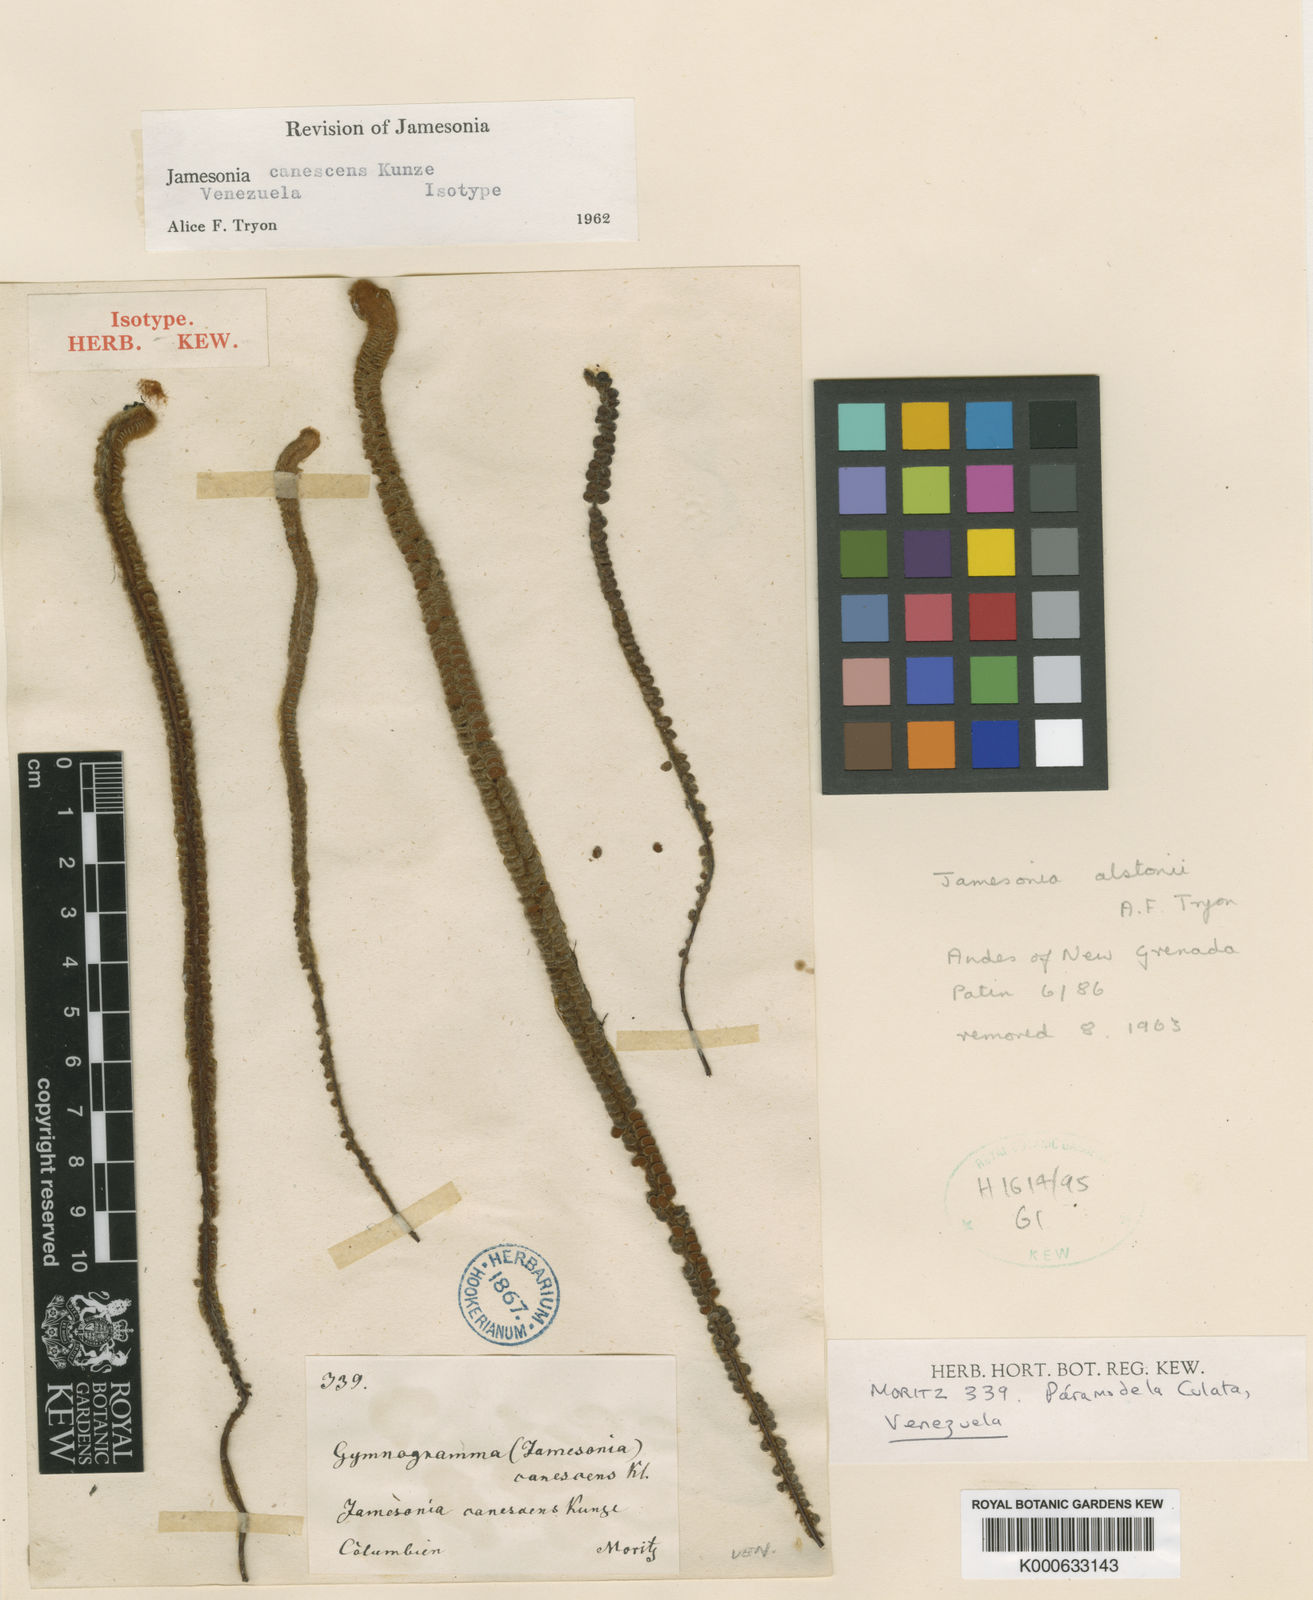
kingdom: Plantae
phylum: Tracheophyta
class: Polypodiopsida
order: Polypodiales
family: Pteridaceae
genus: Jamesonia
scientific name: Jamesonia canescens
